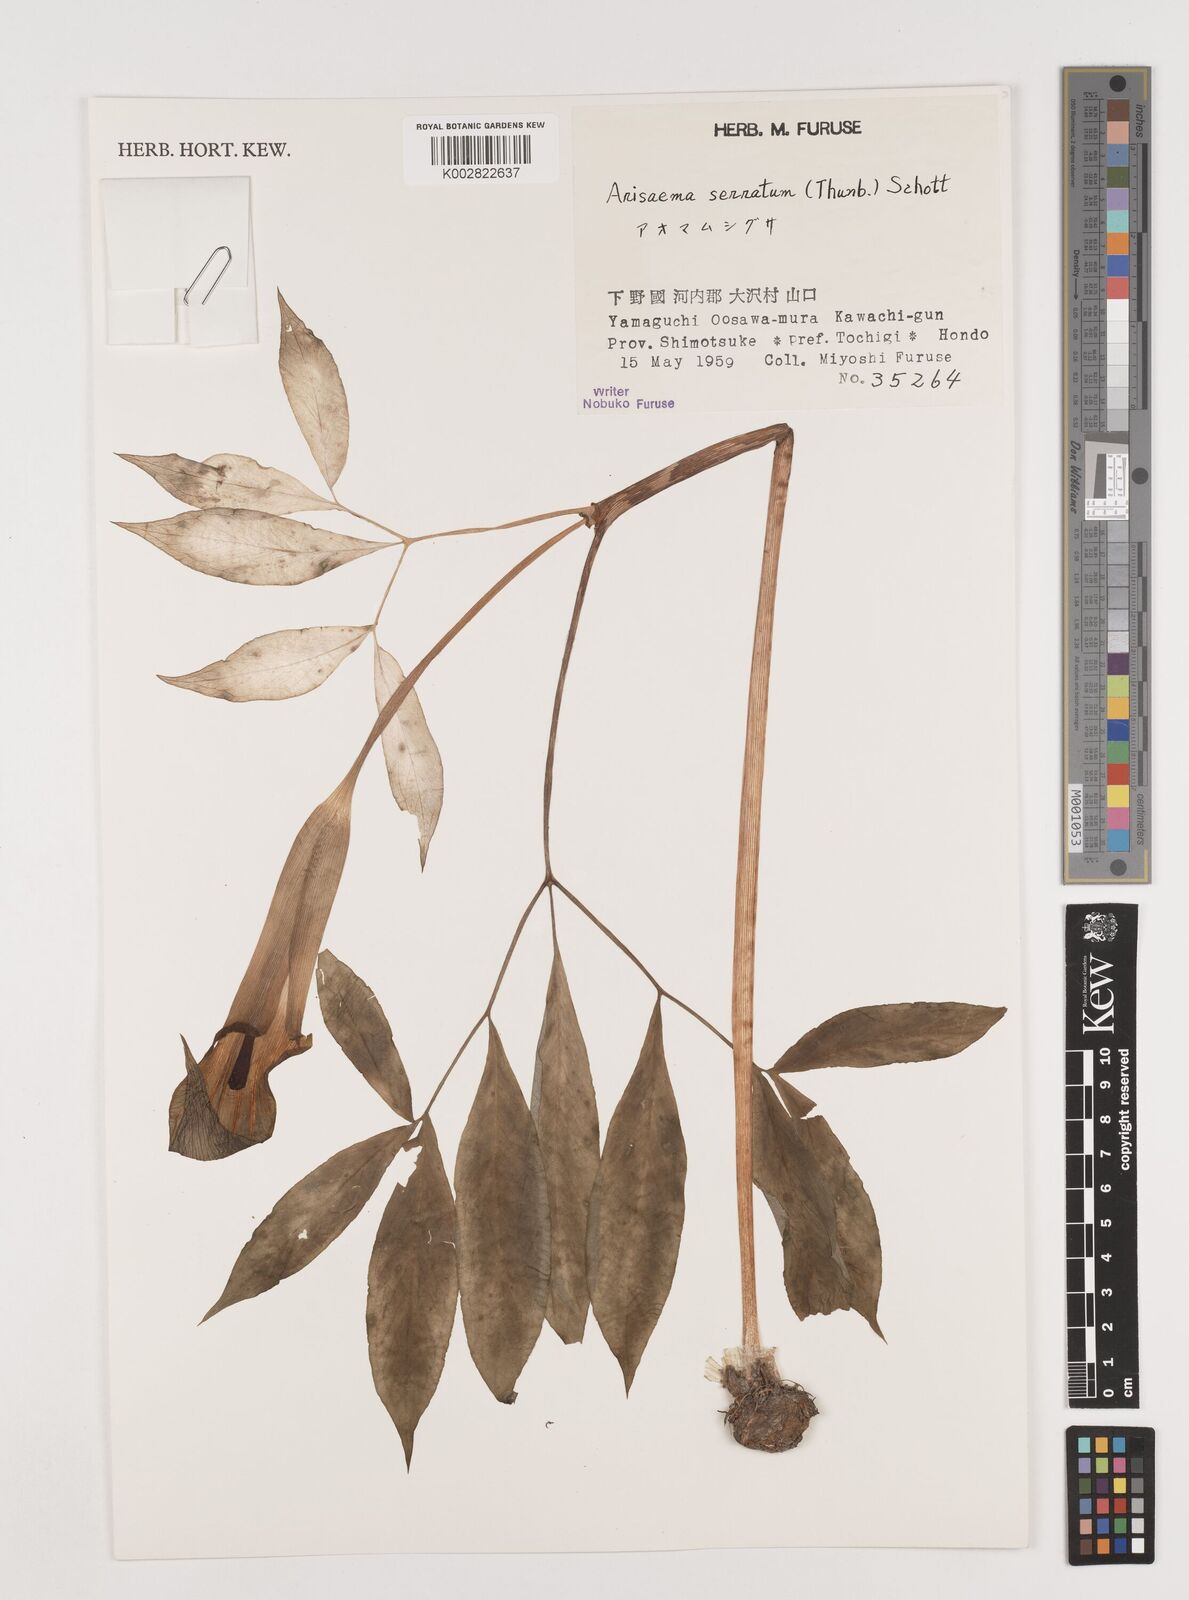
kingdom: Plantae
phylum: Tracheophyta
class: Liliopsida
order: Alismatales
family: Araceae
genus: Arisaema
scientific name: Arisaema serratum
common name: Japanese arisaema
